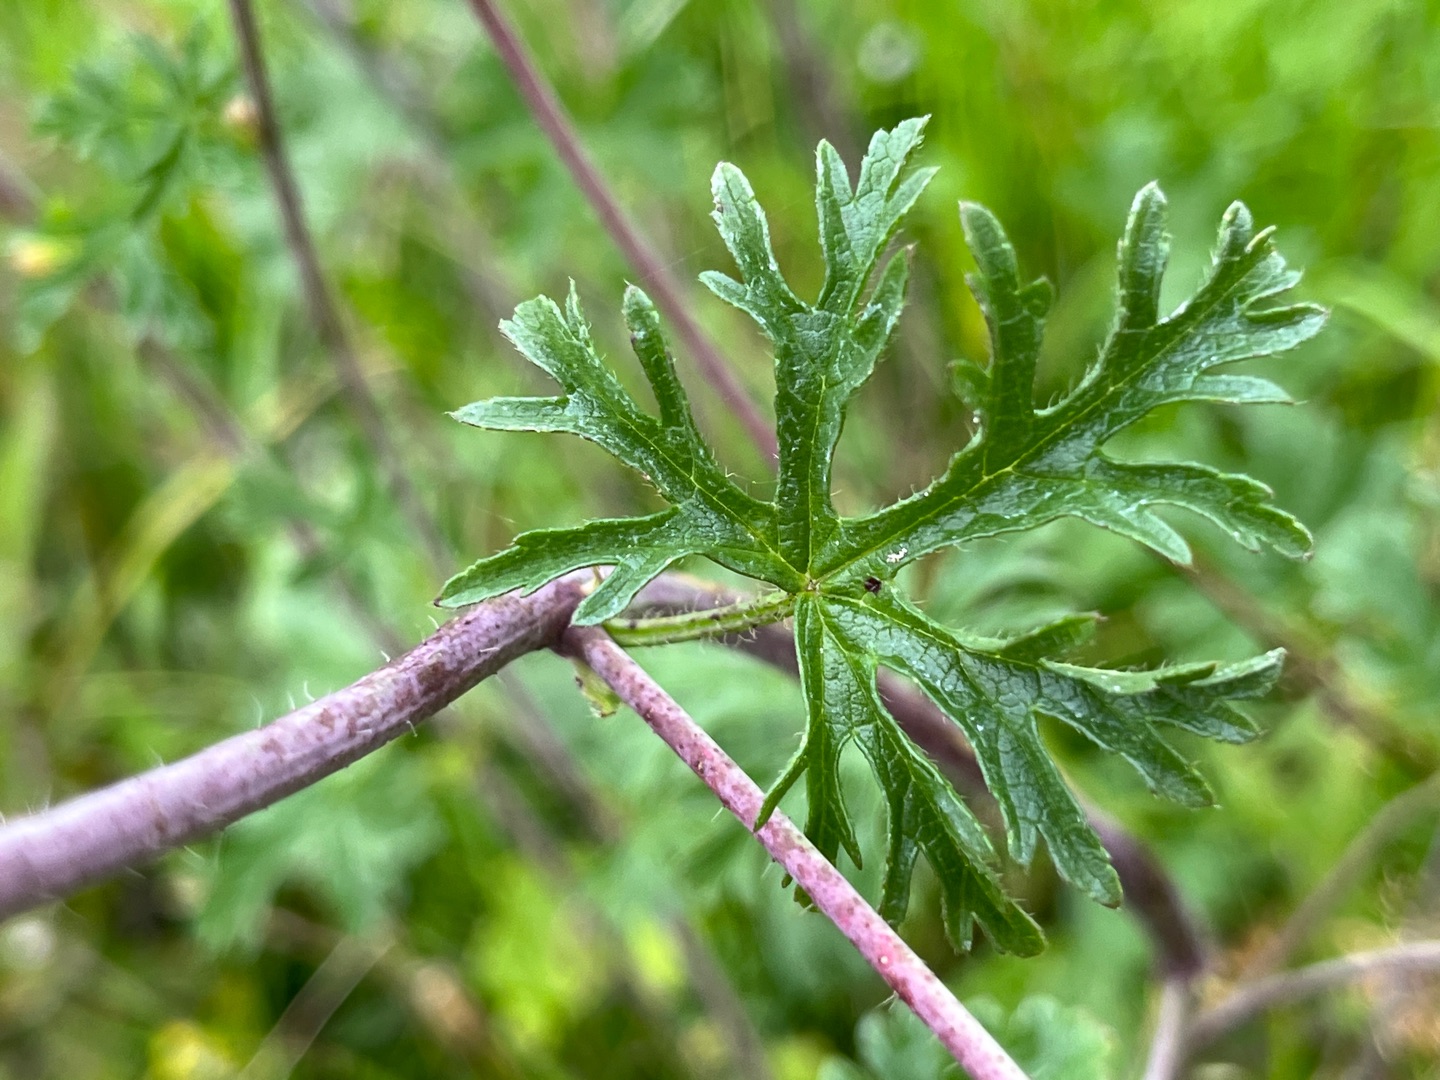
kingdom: Plantae
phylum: Tracheophyta
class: Magnoliopsida
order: Malvales
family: Malvaceae
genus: Malva
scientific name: Malva moschata
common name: Moskus-katost
